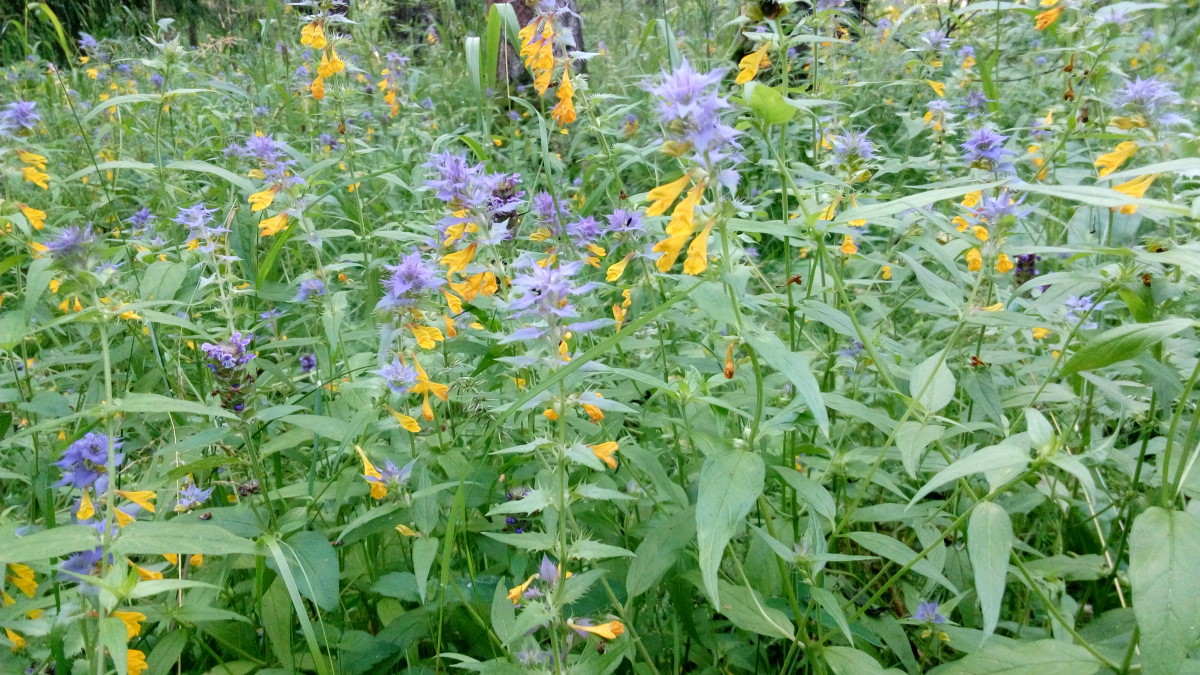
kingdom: Plantae
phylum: Tracheophyta
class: Magnoliopsida
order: Lamiales
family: Orobanchaceae
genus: Melampyrum
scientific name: Melampyrum nemorosum
